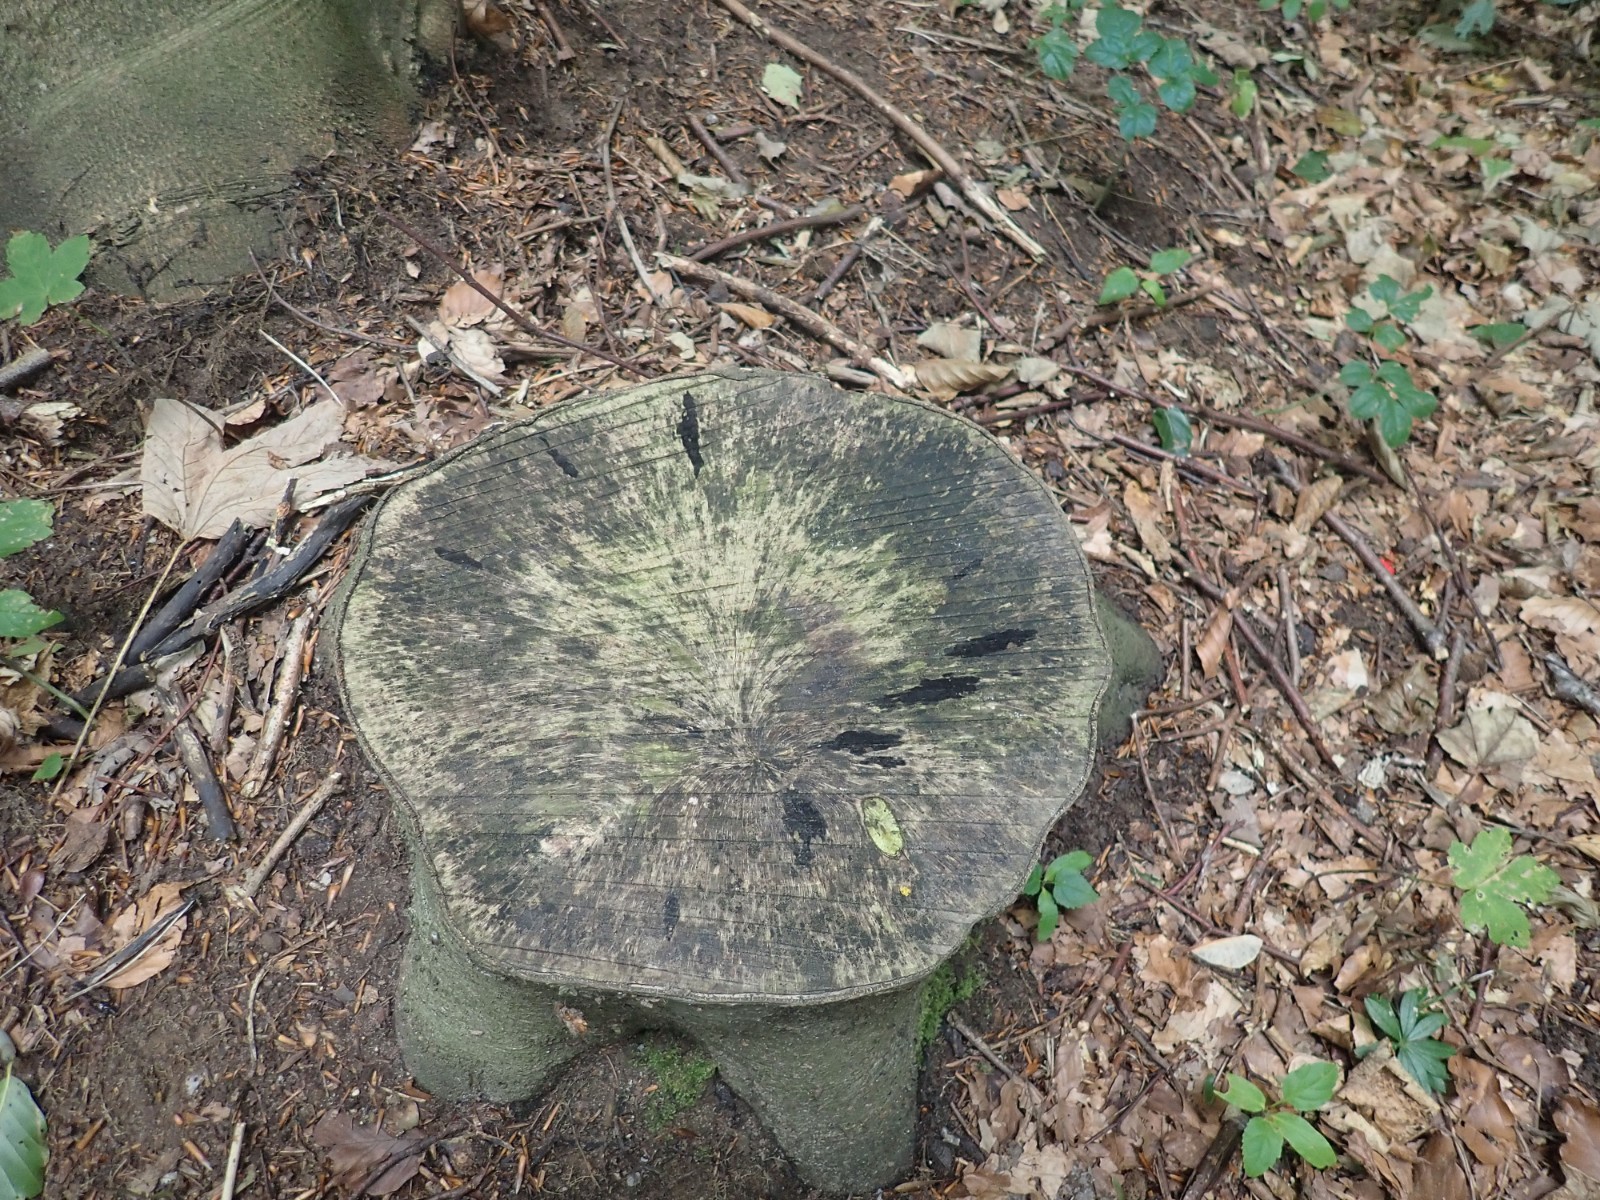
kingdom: Fungi
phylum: Ascomycota
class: Leotiomycetes
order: Helotiales
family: Helotiaceae
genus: Bispora
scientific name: Bispora pallescens
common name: måtte-snitskive
